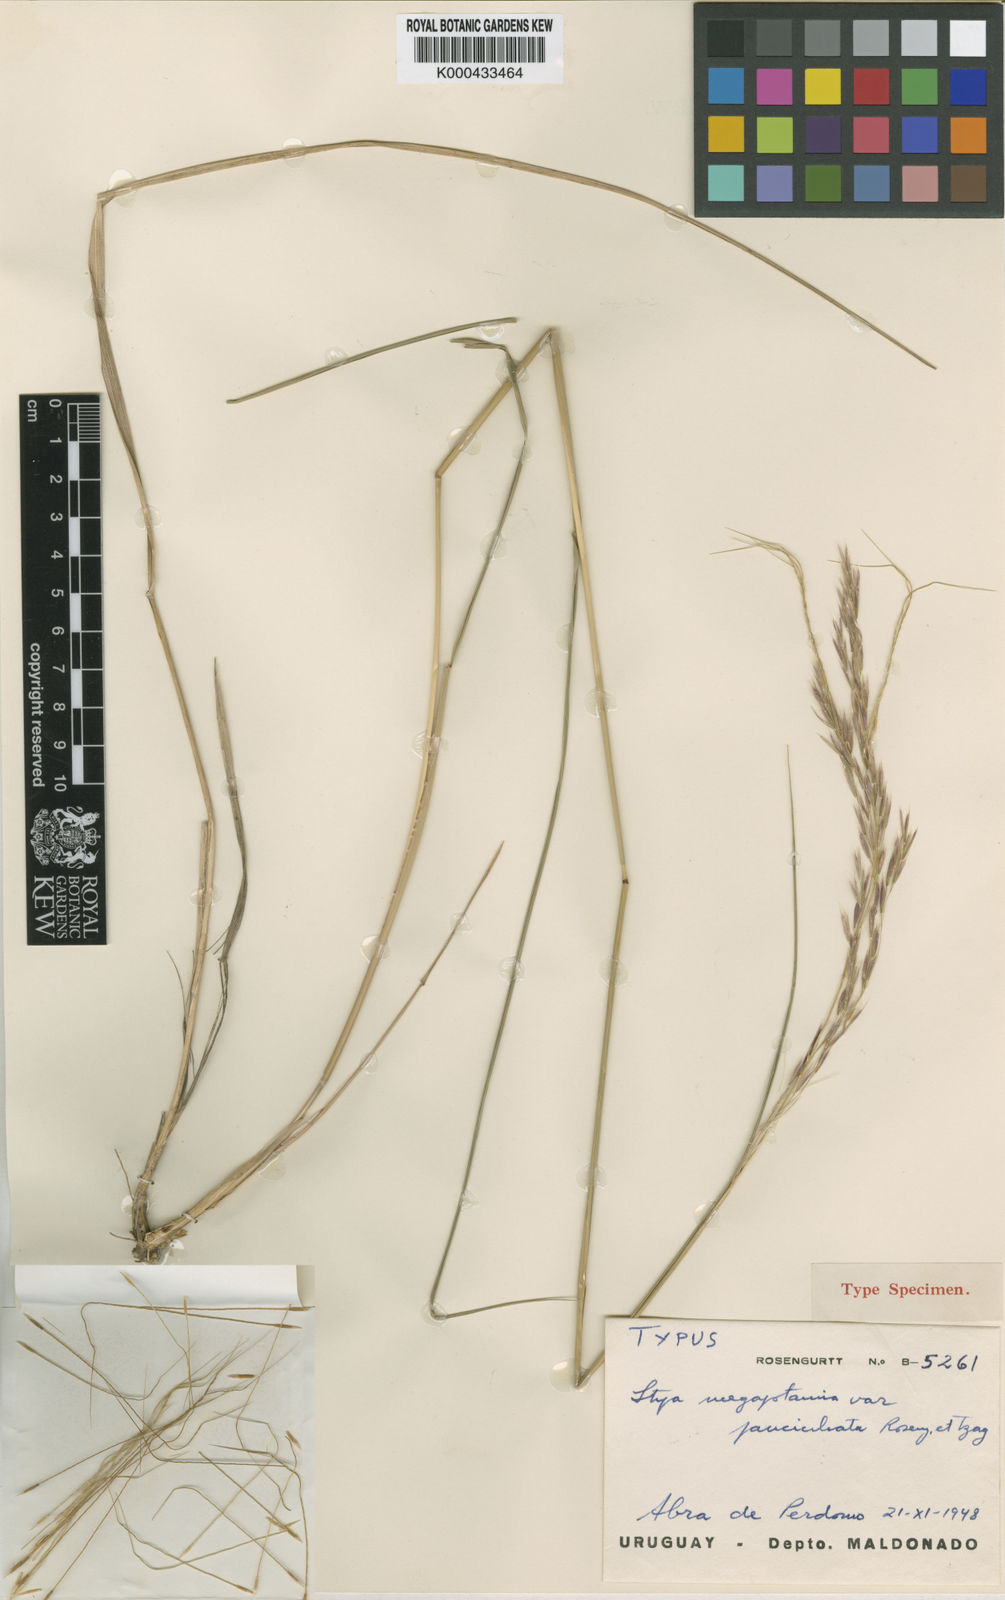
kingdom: Plantae
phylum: Tracheophyta
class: Liliopsida
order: Poales
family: Poaceae
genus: Stipa
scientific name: Stipa
